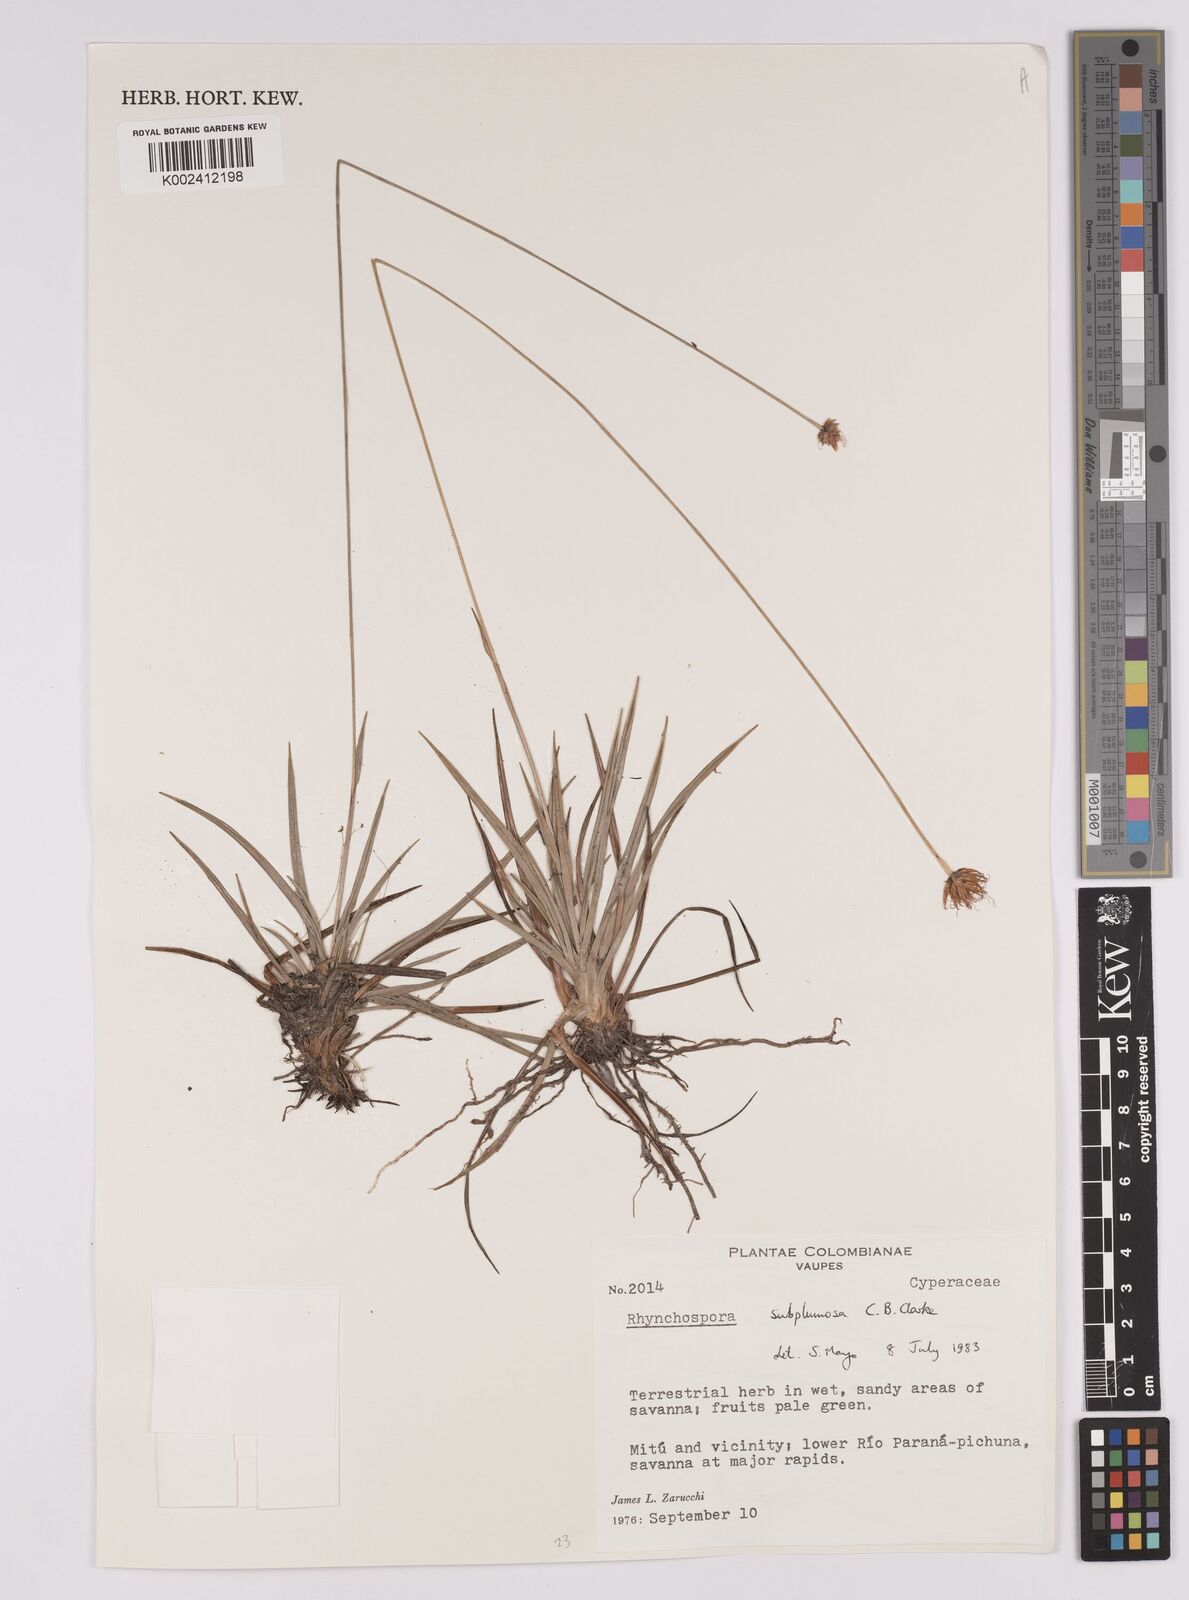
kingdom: Plantae
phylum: Tracheophyta
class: Liliopsida
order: Poales
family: Cyperaceae
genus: Rhynchospora
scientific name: Rhynchospora subplumosa
